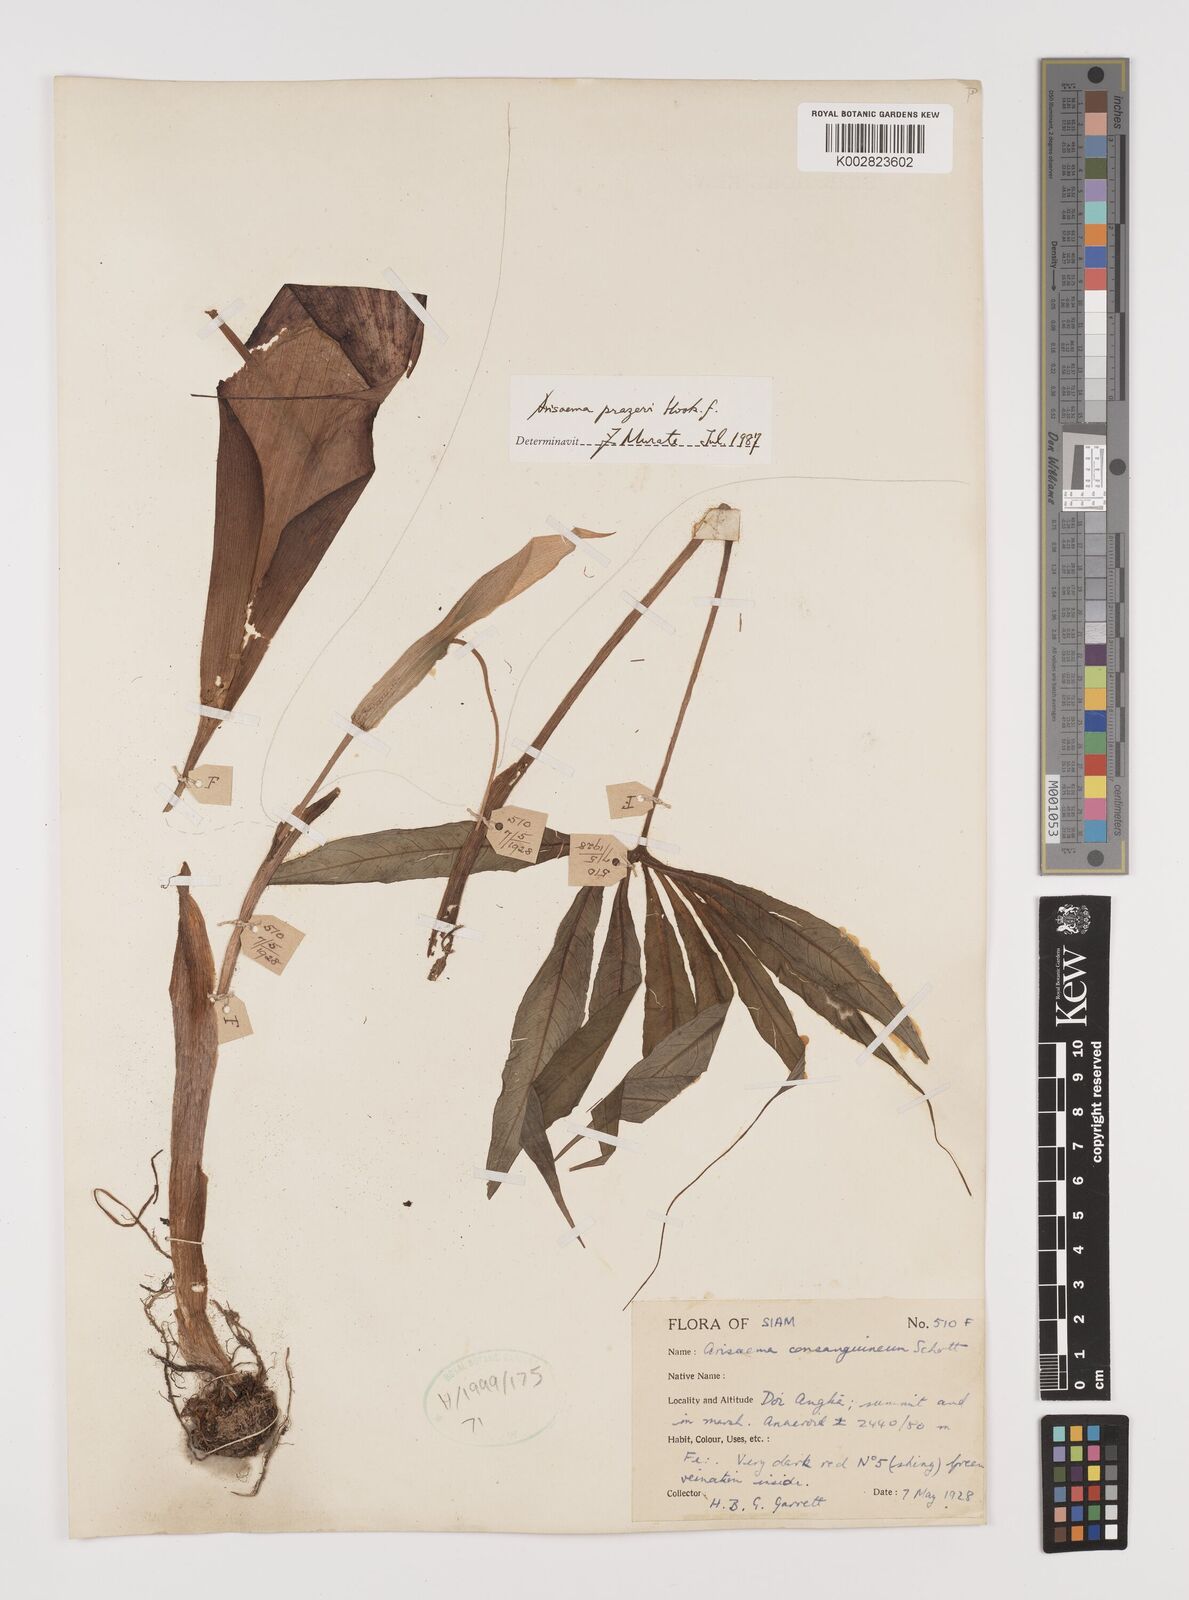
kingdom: Plantae
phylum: Tracheophyta
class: Liliopsida
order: Alismatales
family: Araceae
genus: Arisaema
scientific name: Arisaema consanguineum
